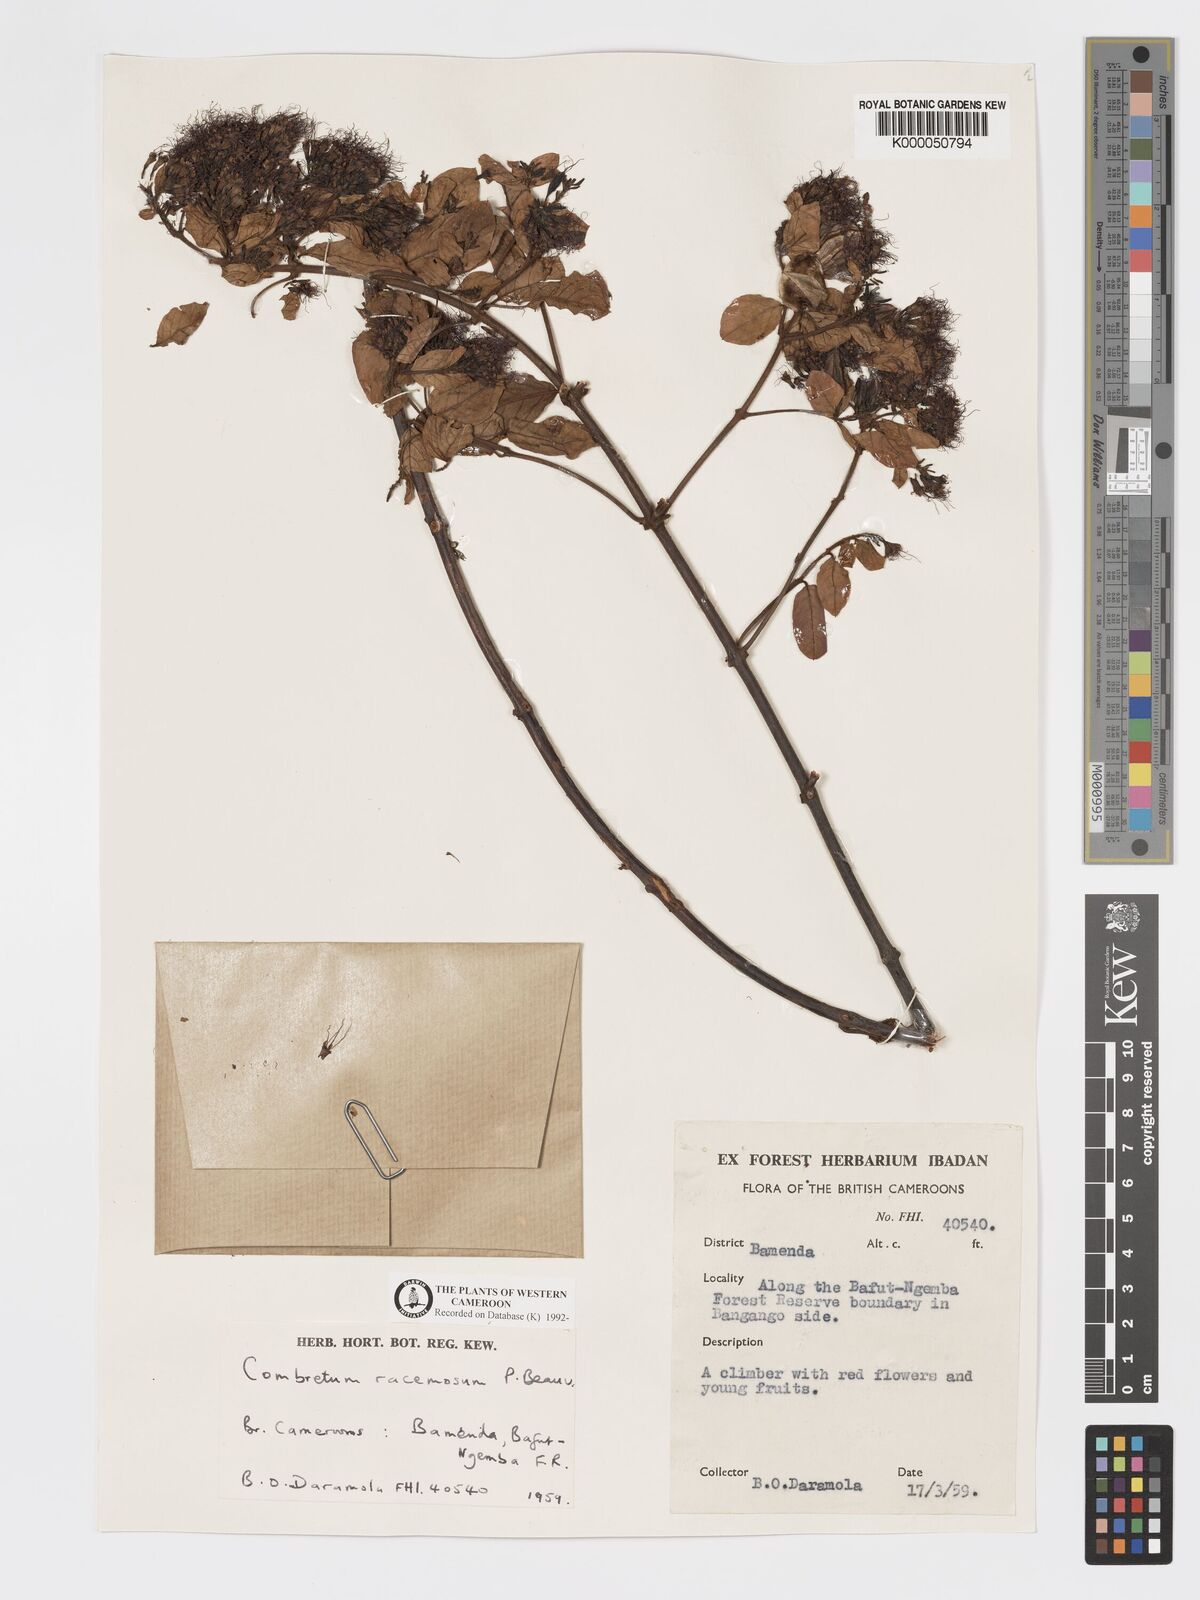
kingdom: Plantae
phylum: Tracheophyta
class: Magnoliopsida
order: Myrtales
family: Combretaceae
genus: Combretum
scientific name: Combretum racemosum
